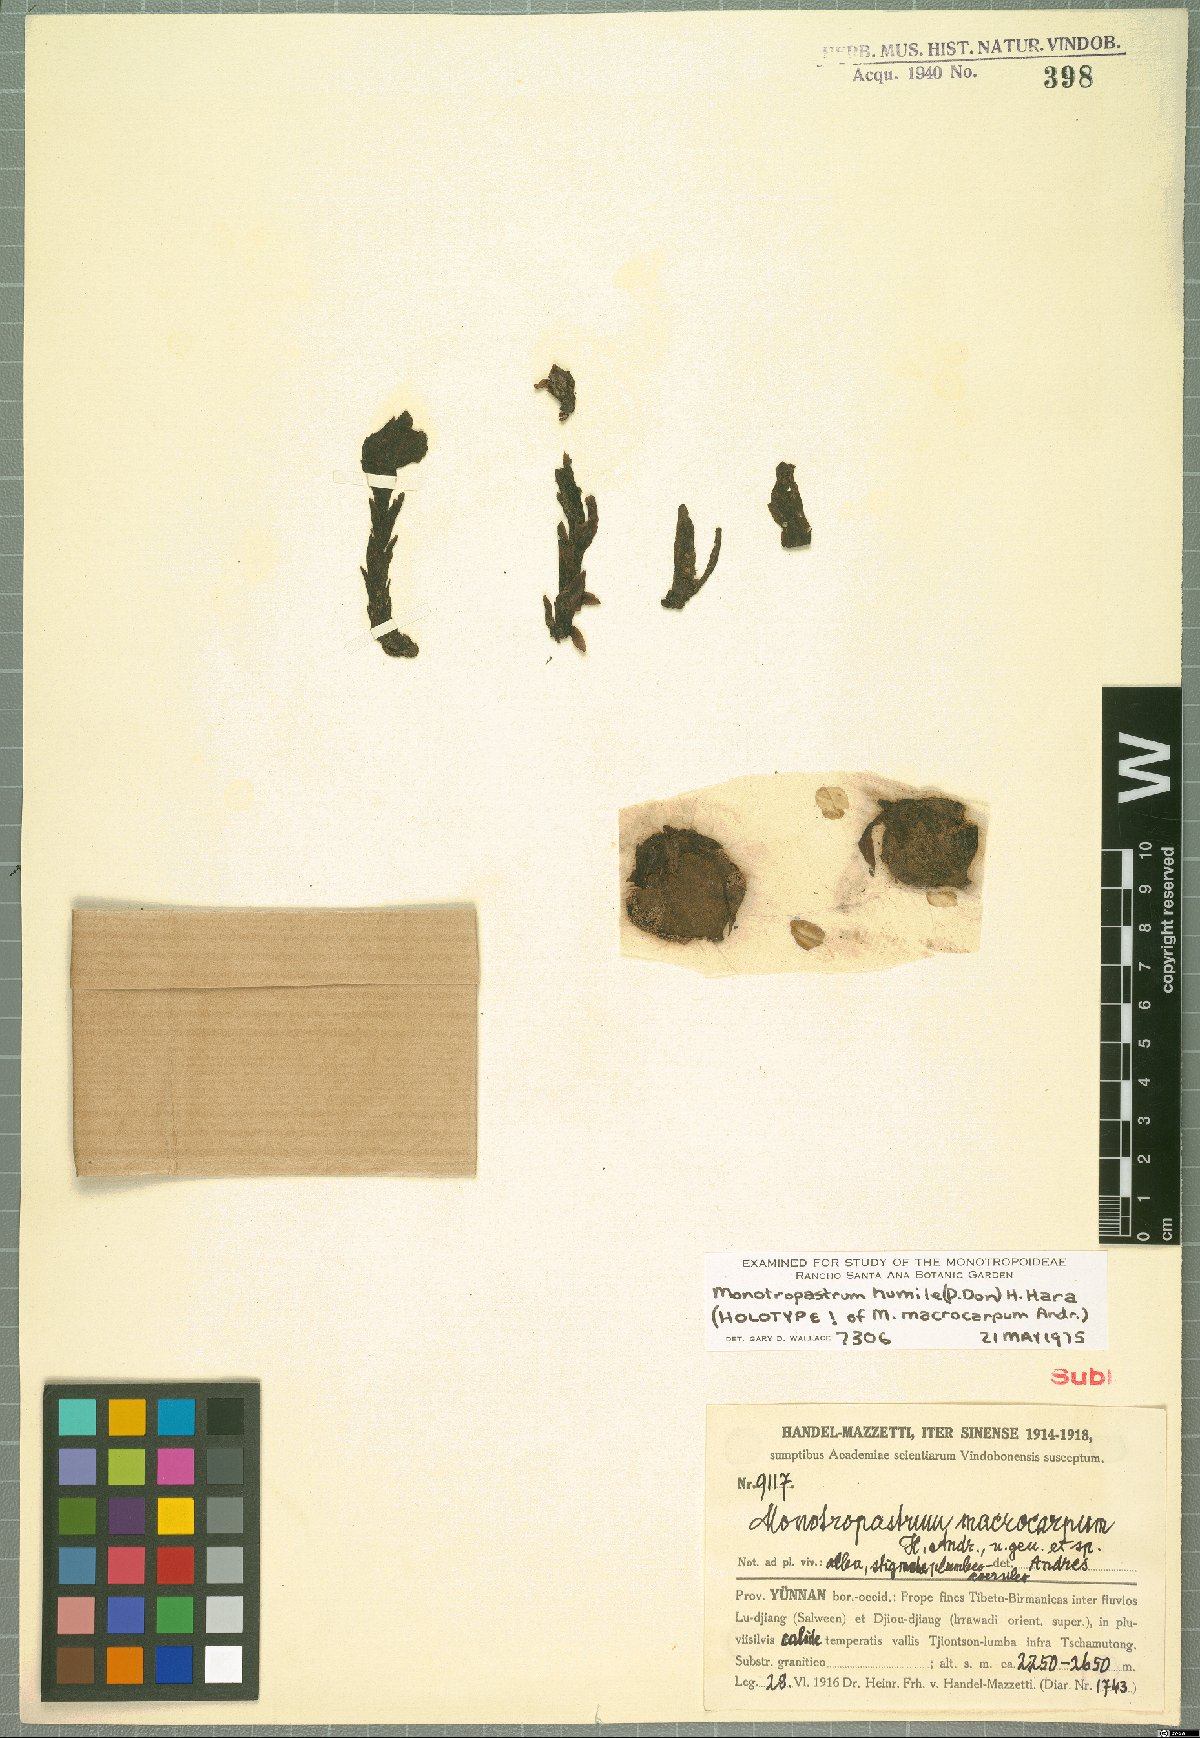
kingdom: Plantae
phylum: Tracheophyta
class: Magnoliopsida
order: Ericales
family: Ericaceae
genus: Monotropastrum
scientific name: Monotropastrum humile
